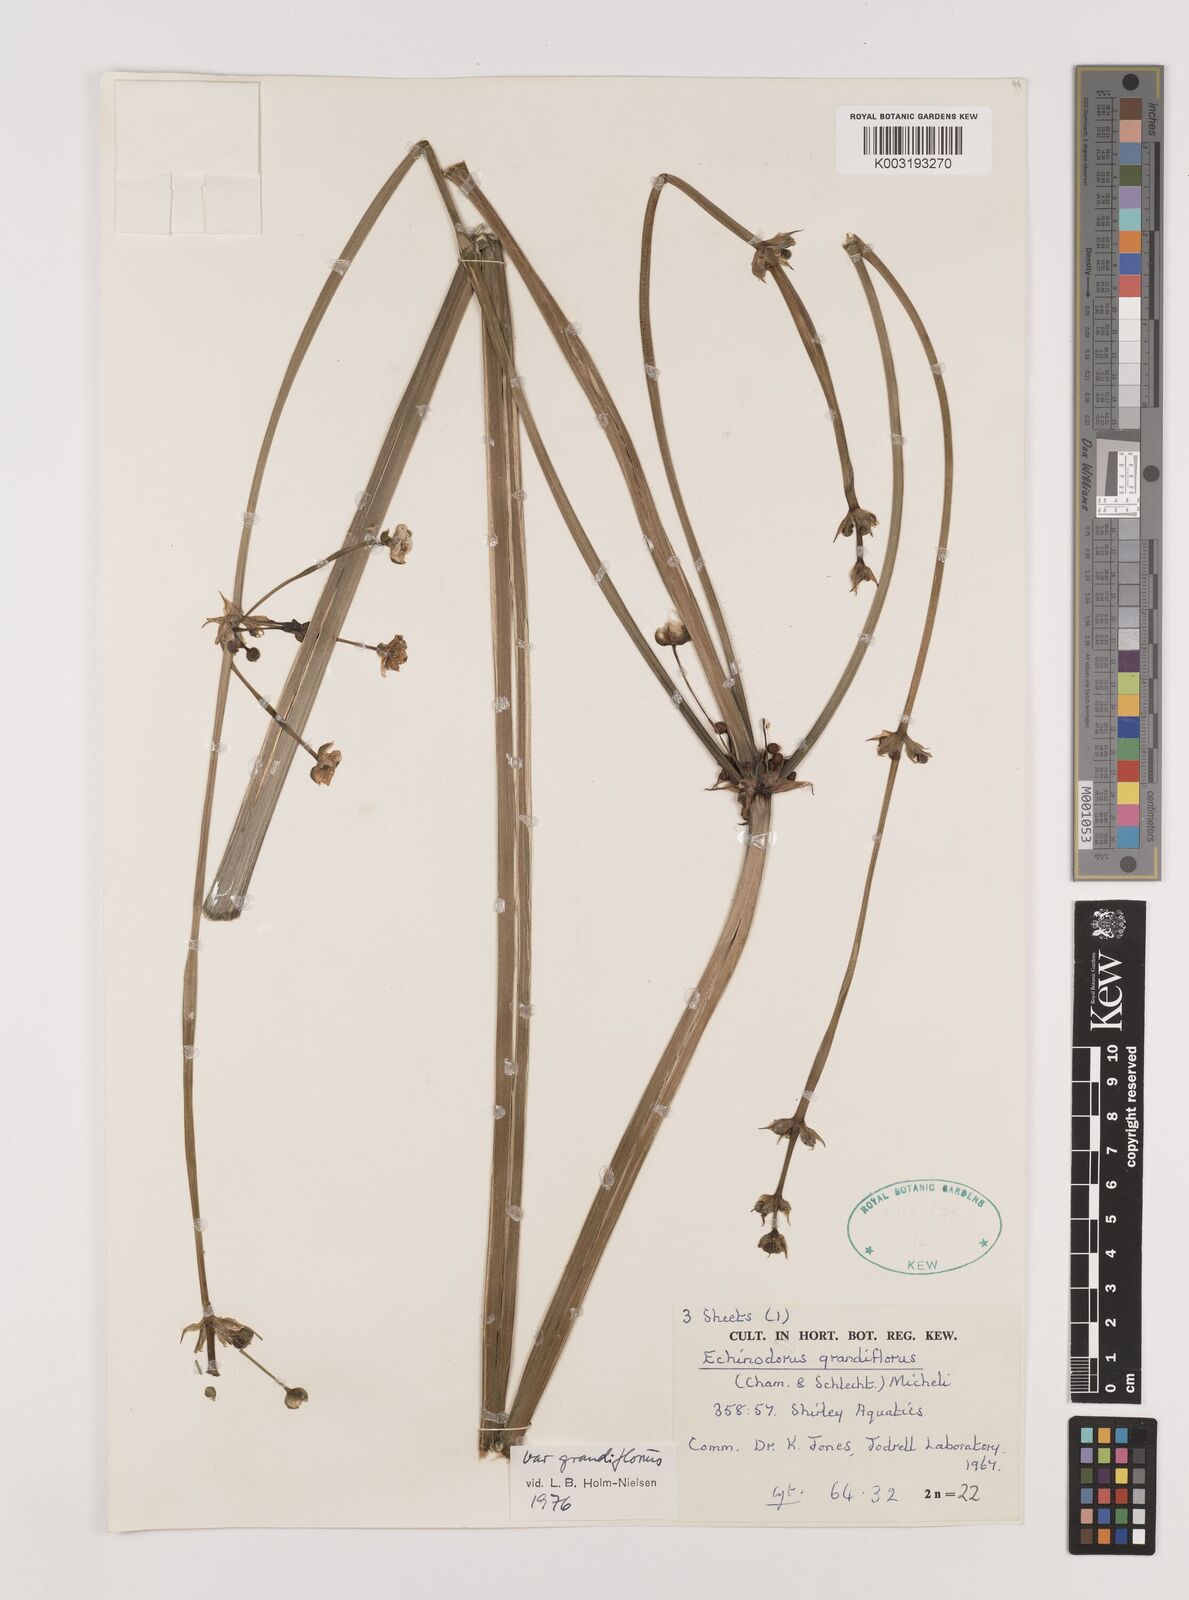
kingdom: Plantae
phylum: Tracheophyta
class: Liliopsida
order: Alismatales
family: Alismataceae
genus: Aquarius
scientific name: Aquarius grandiflorus
